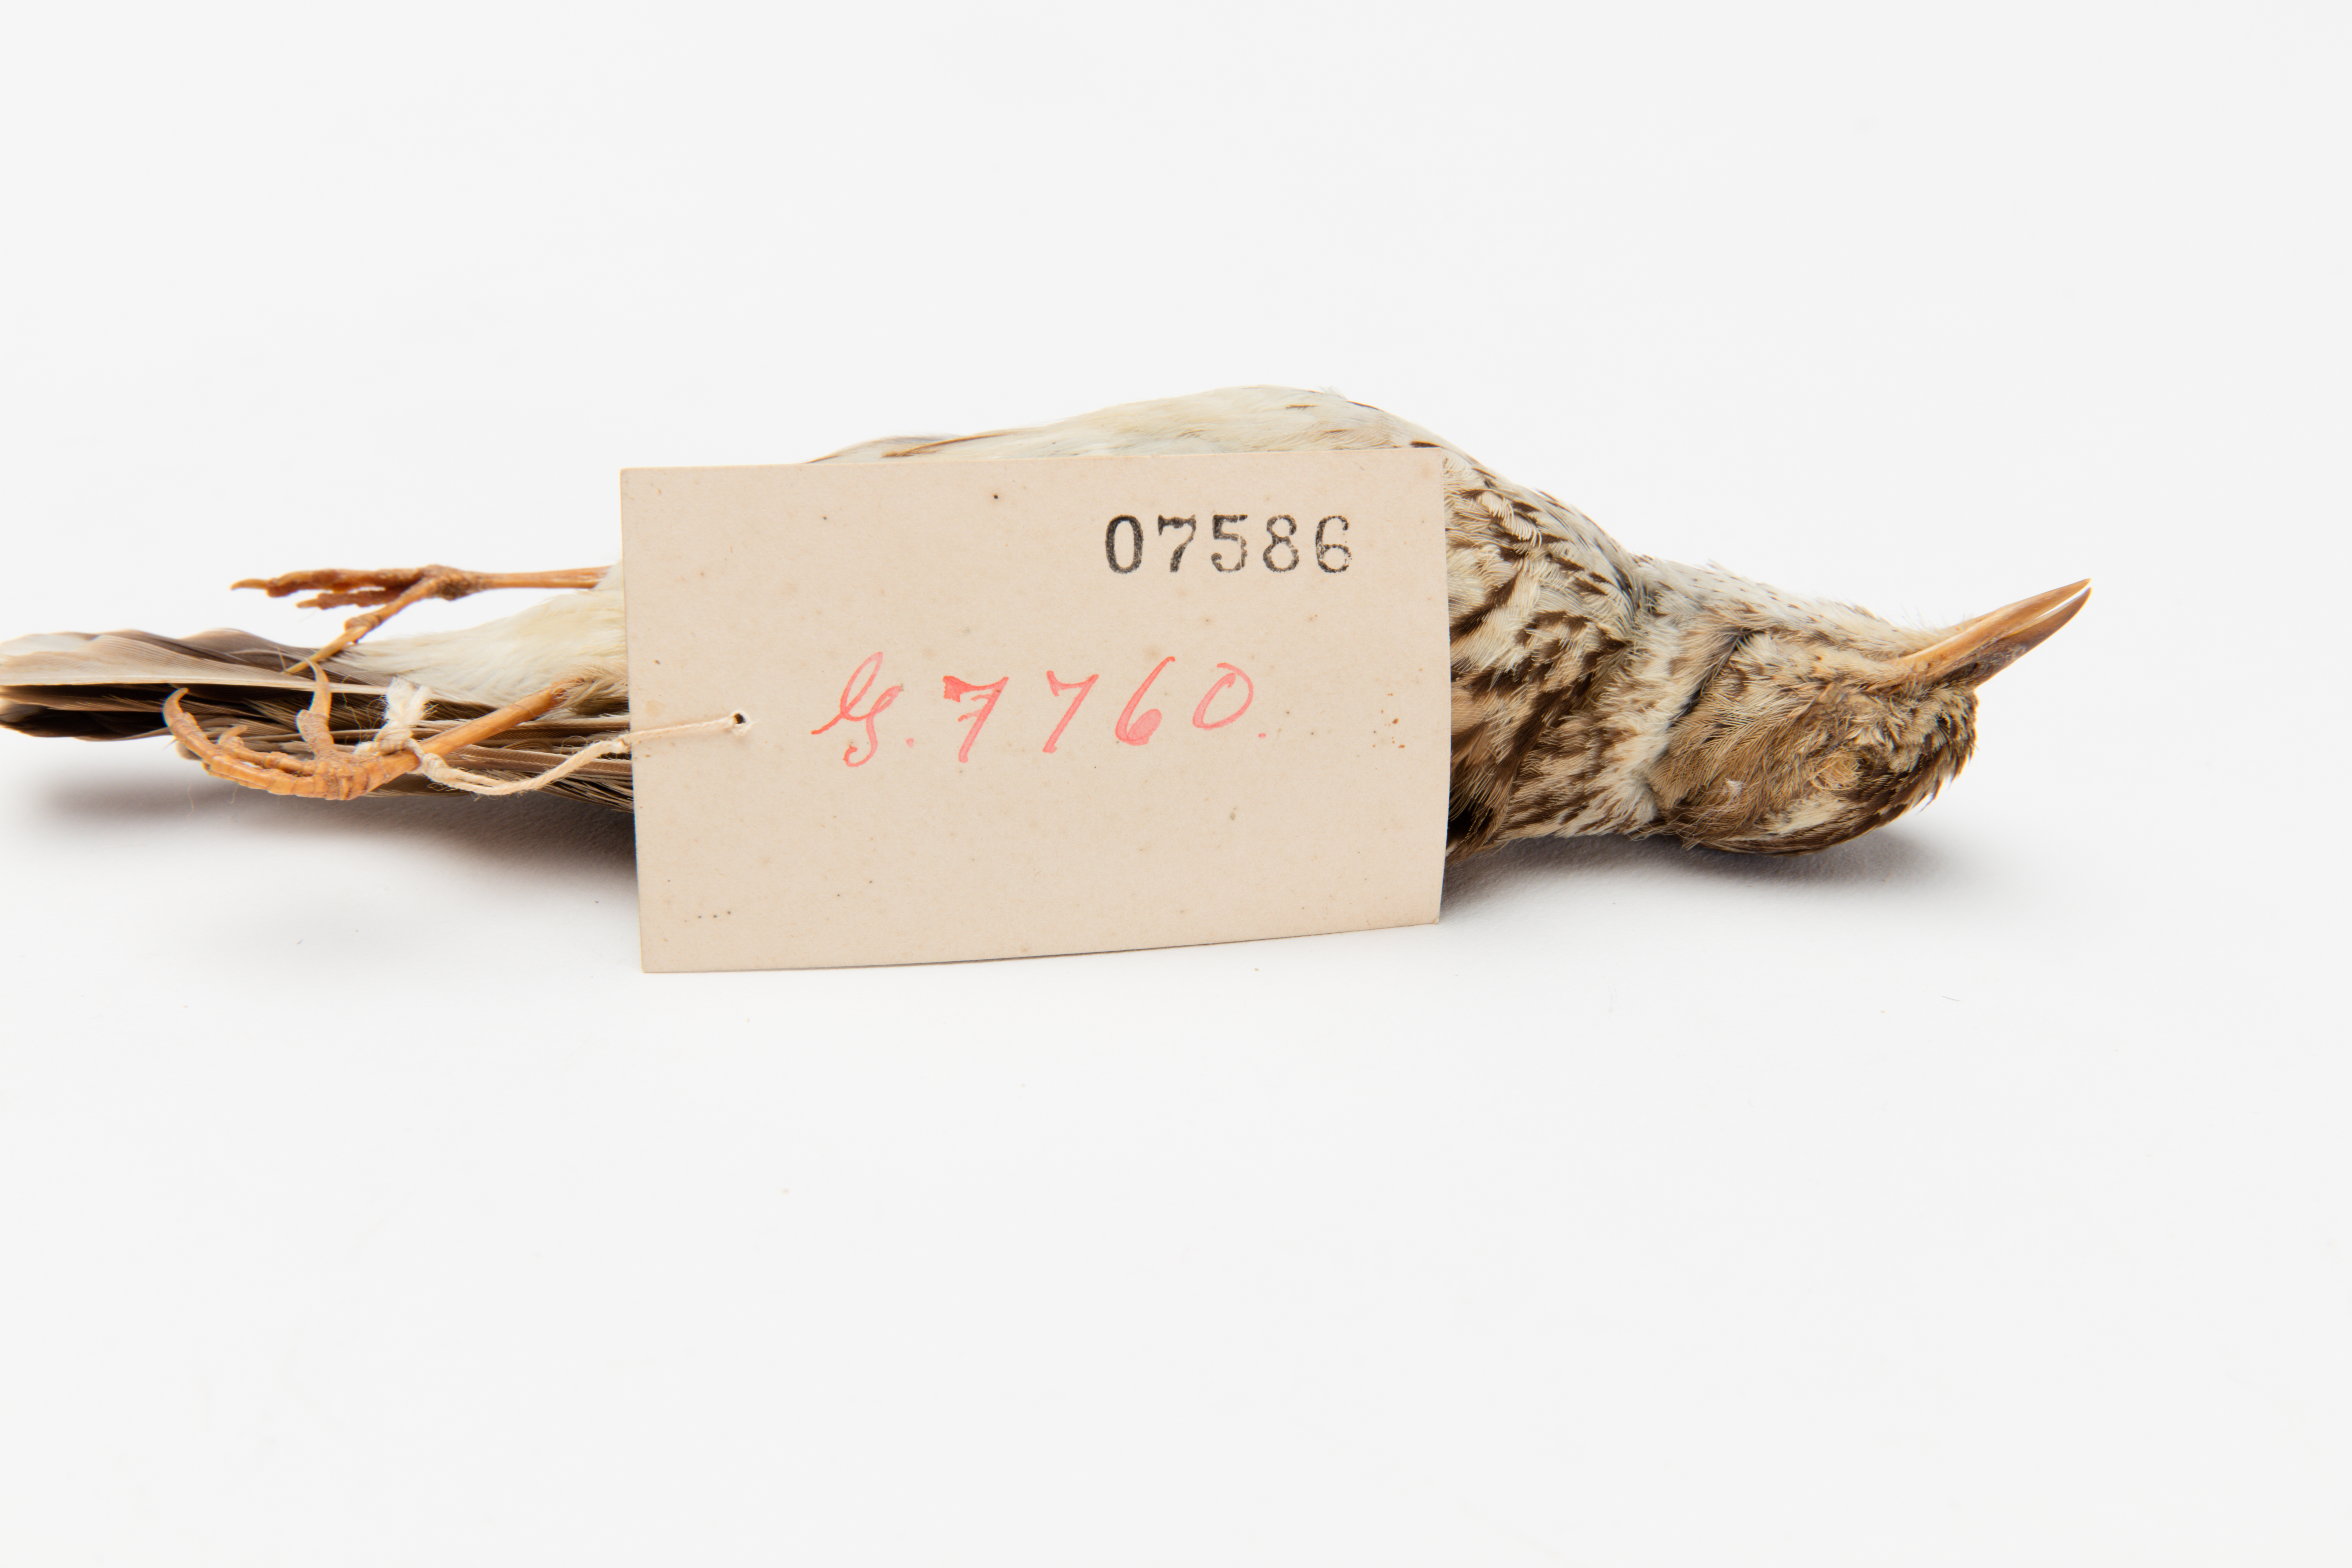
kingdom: Animalia
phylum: Chordata
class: Aves
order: Passeriformes
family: Alaudidae
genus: Lullula
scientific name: Lullula arborea
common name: Woodlark
